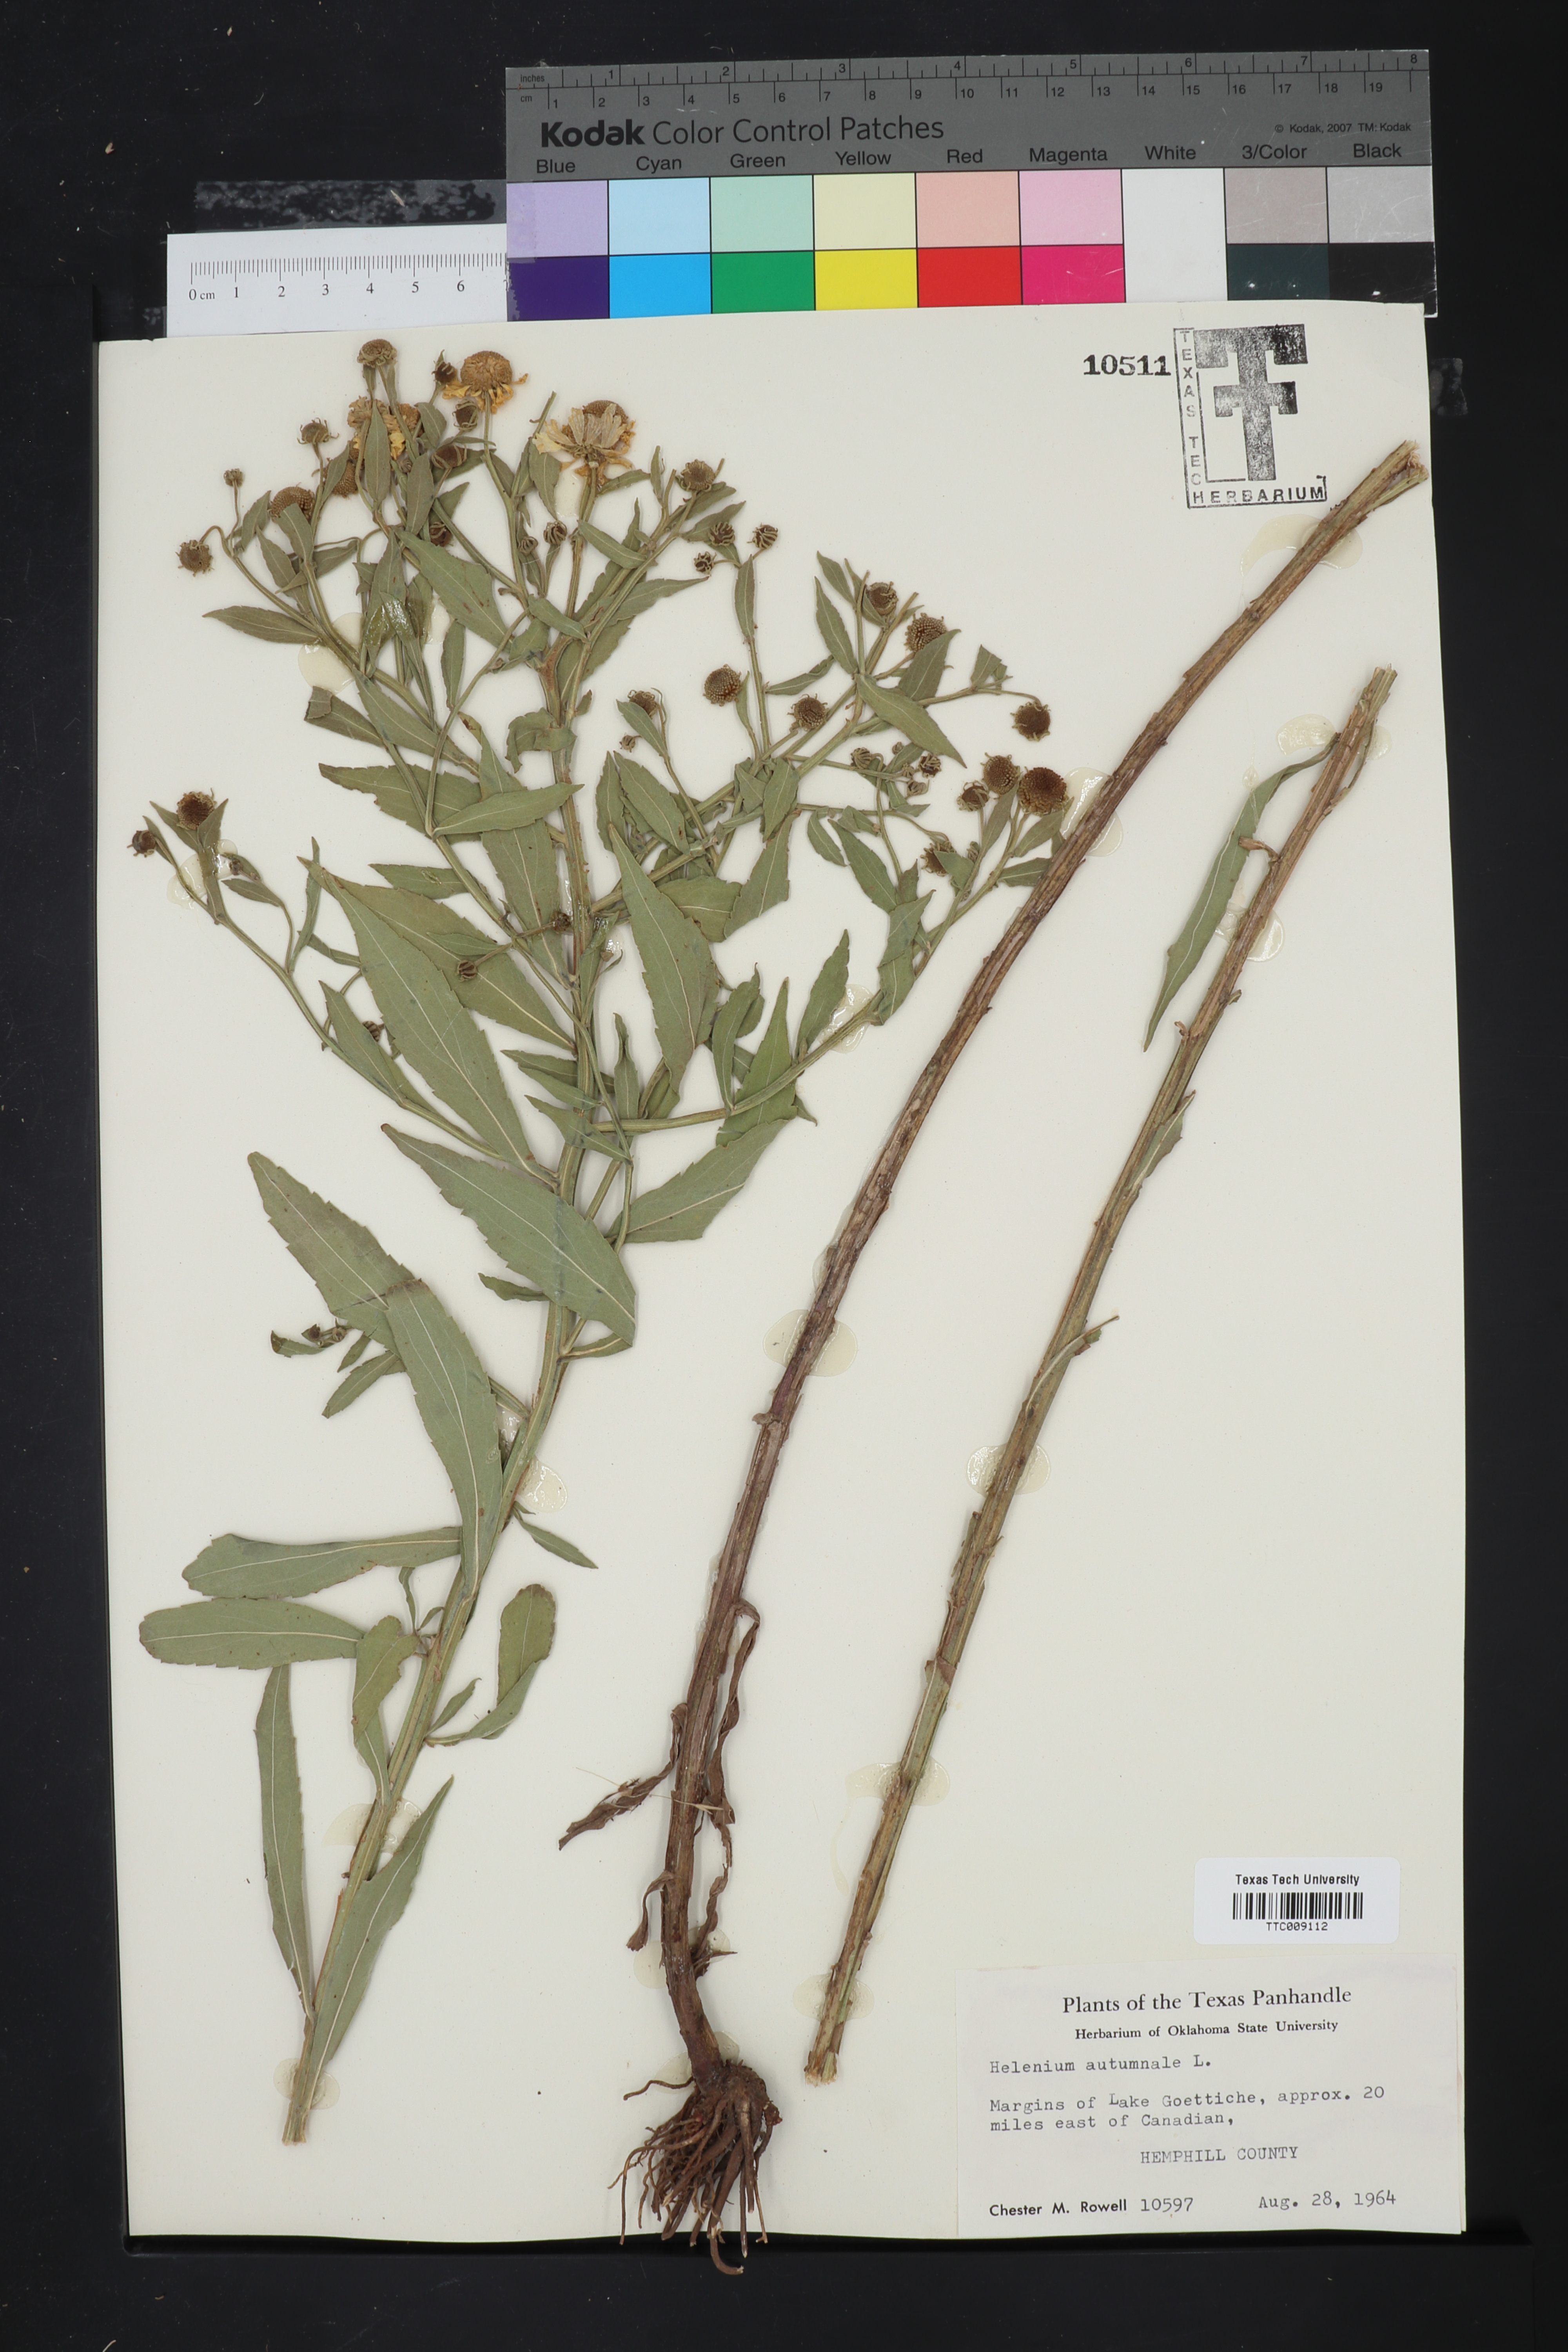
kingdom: Plantae
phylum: Tracheophyta
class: Magnoliopsida
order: Asterales
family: Asteraceae
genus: Helenium
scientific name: Helenium autumnale
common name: Sneezeweed
